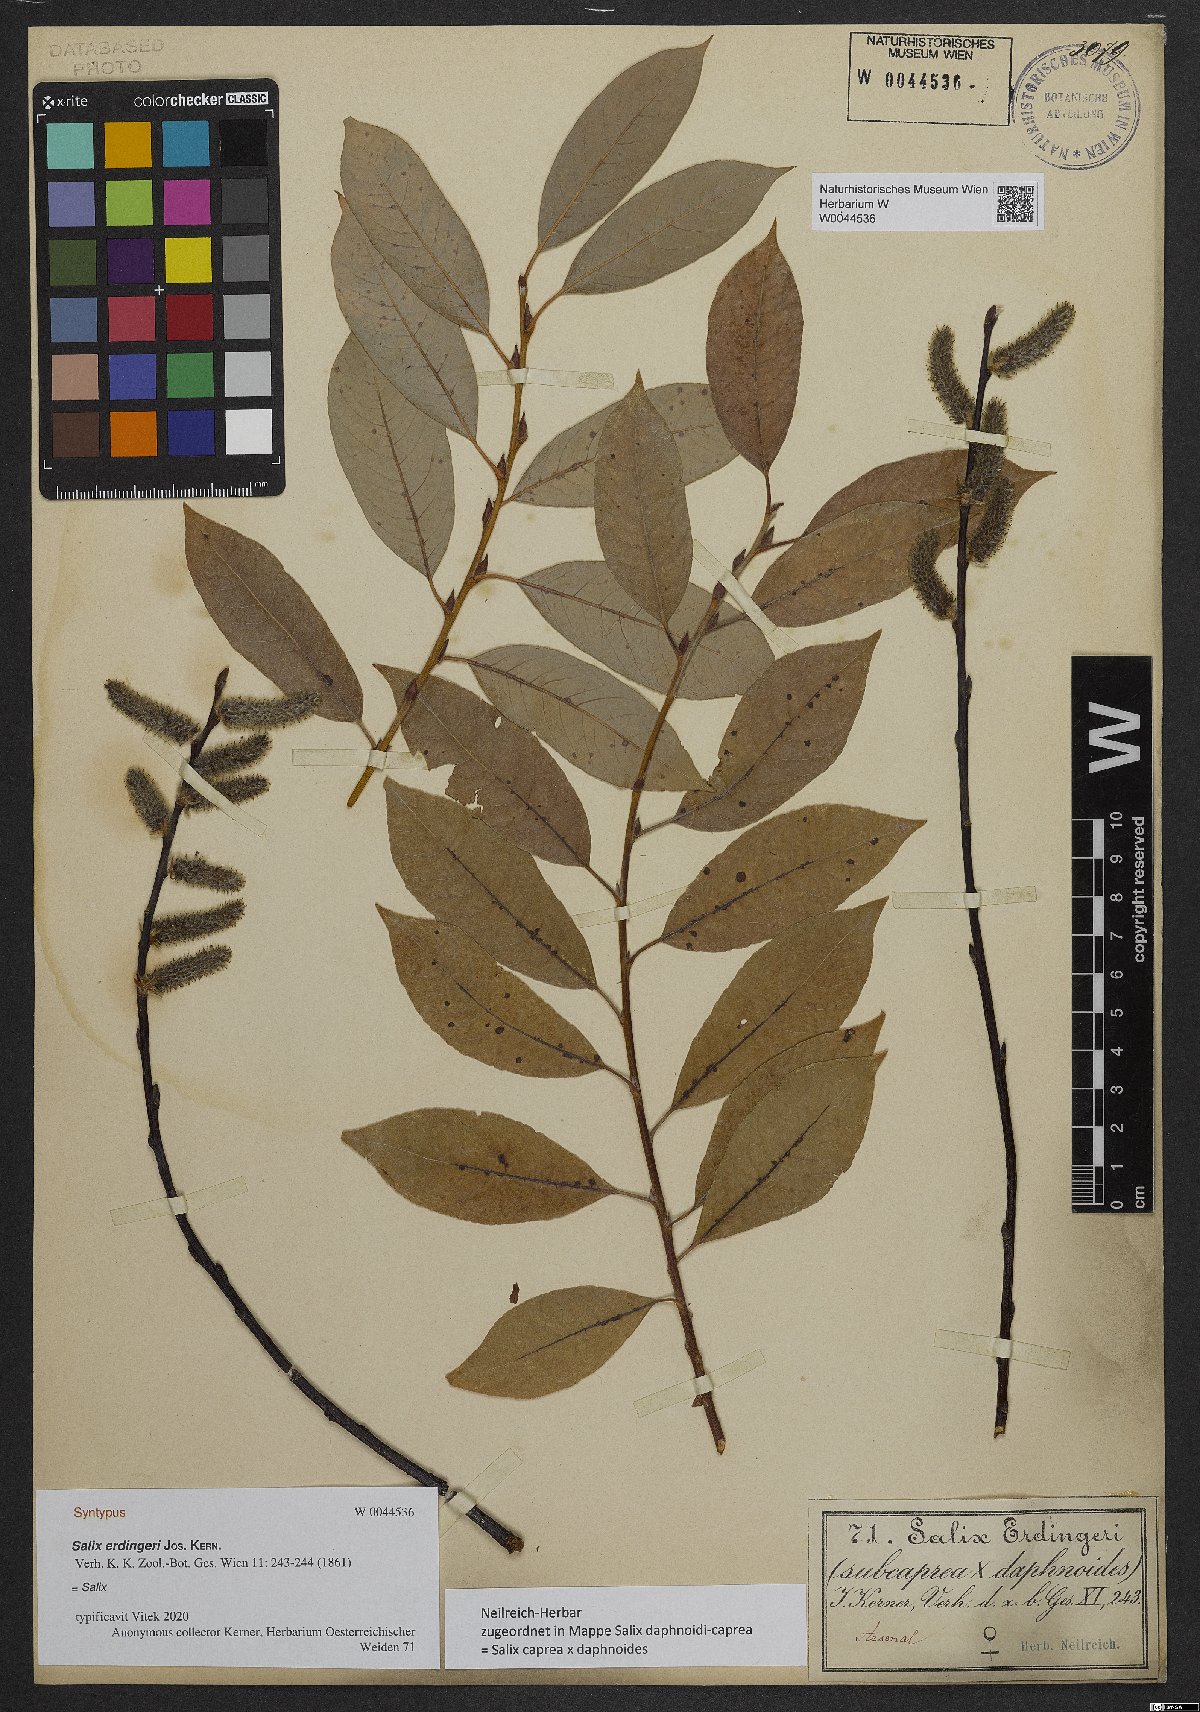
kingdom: Plantae
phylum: Tracheophyta
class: Magnoliopsida
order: Malpighiales
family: Salicaceae
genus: Salix
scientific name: Salix erdingeri
